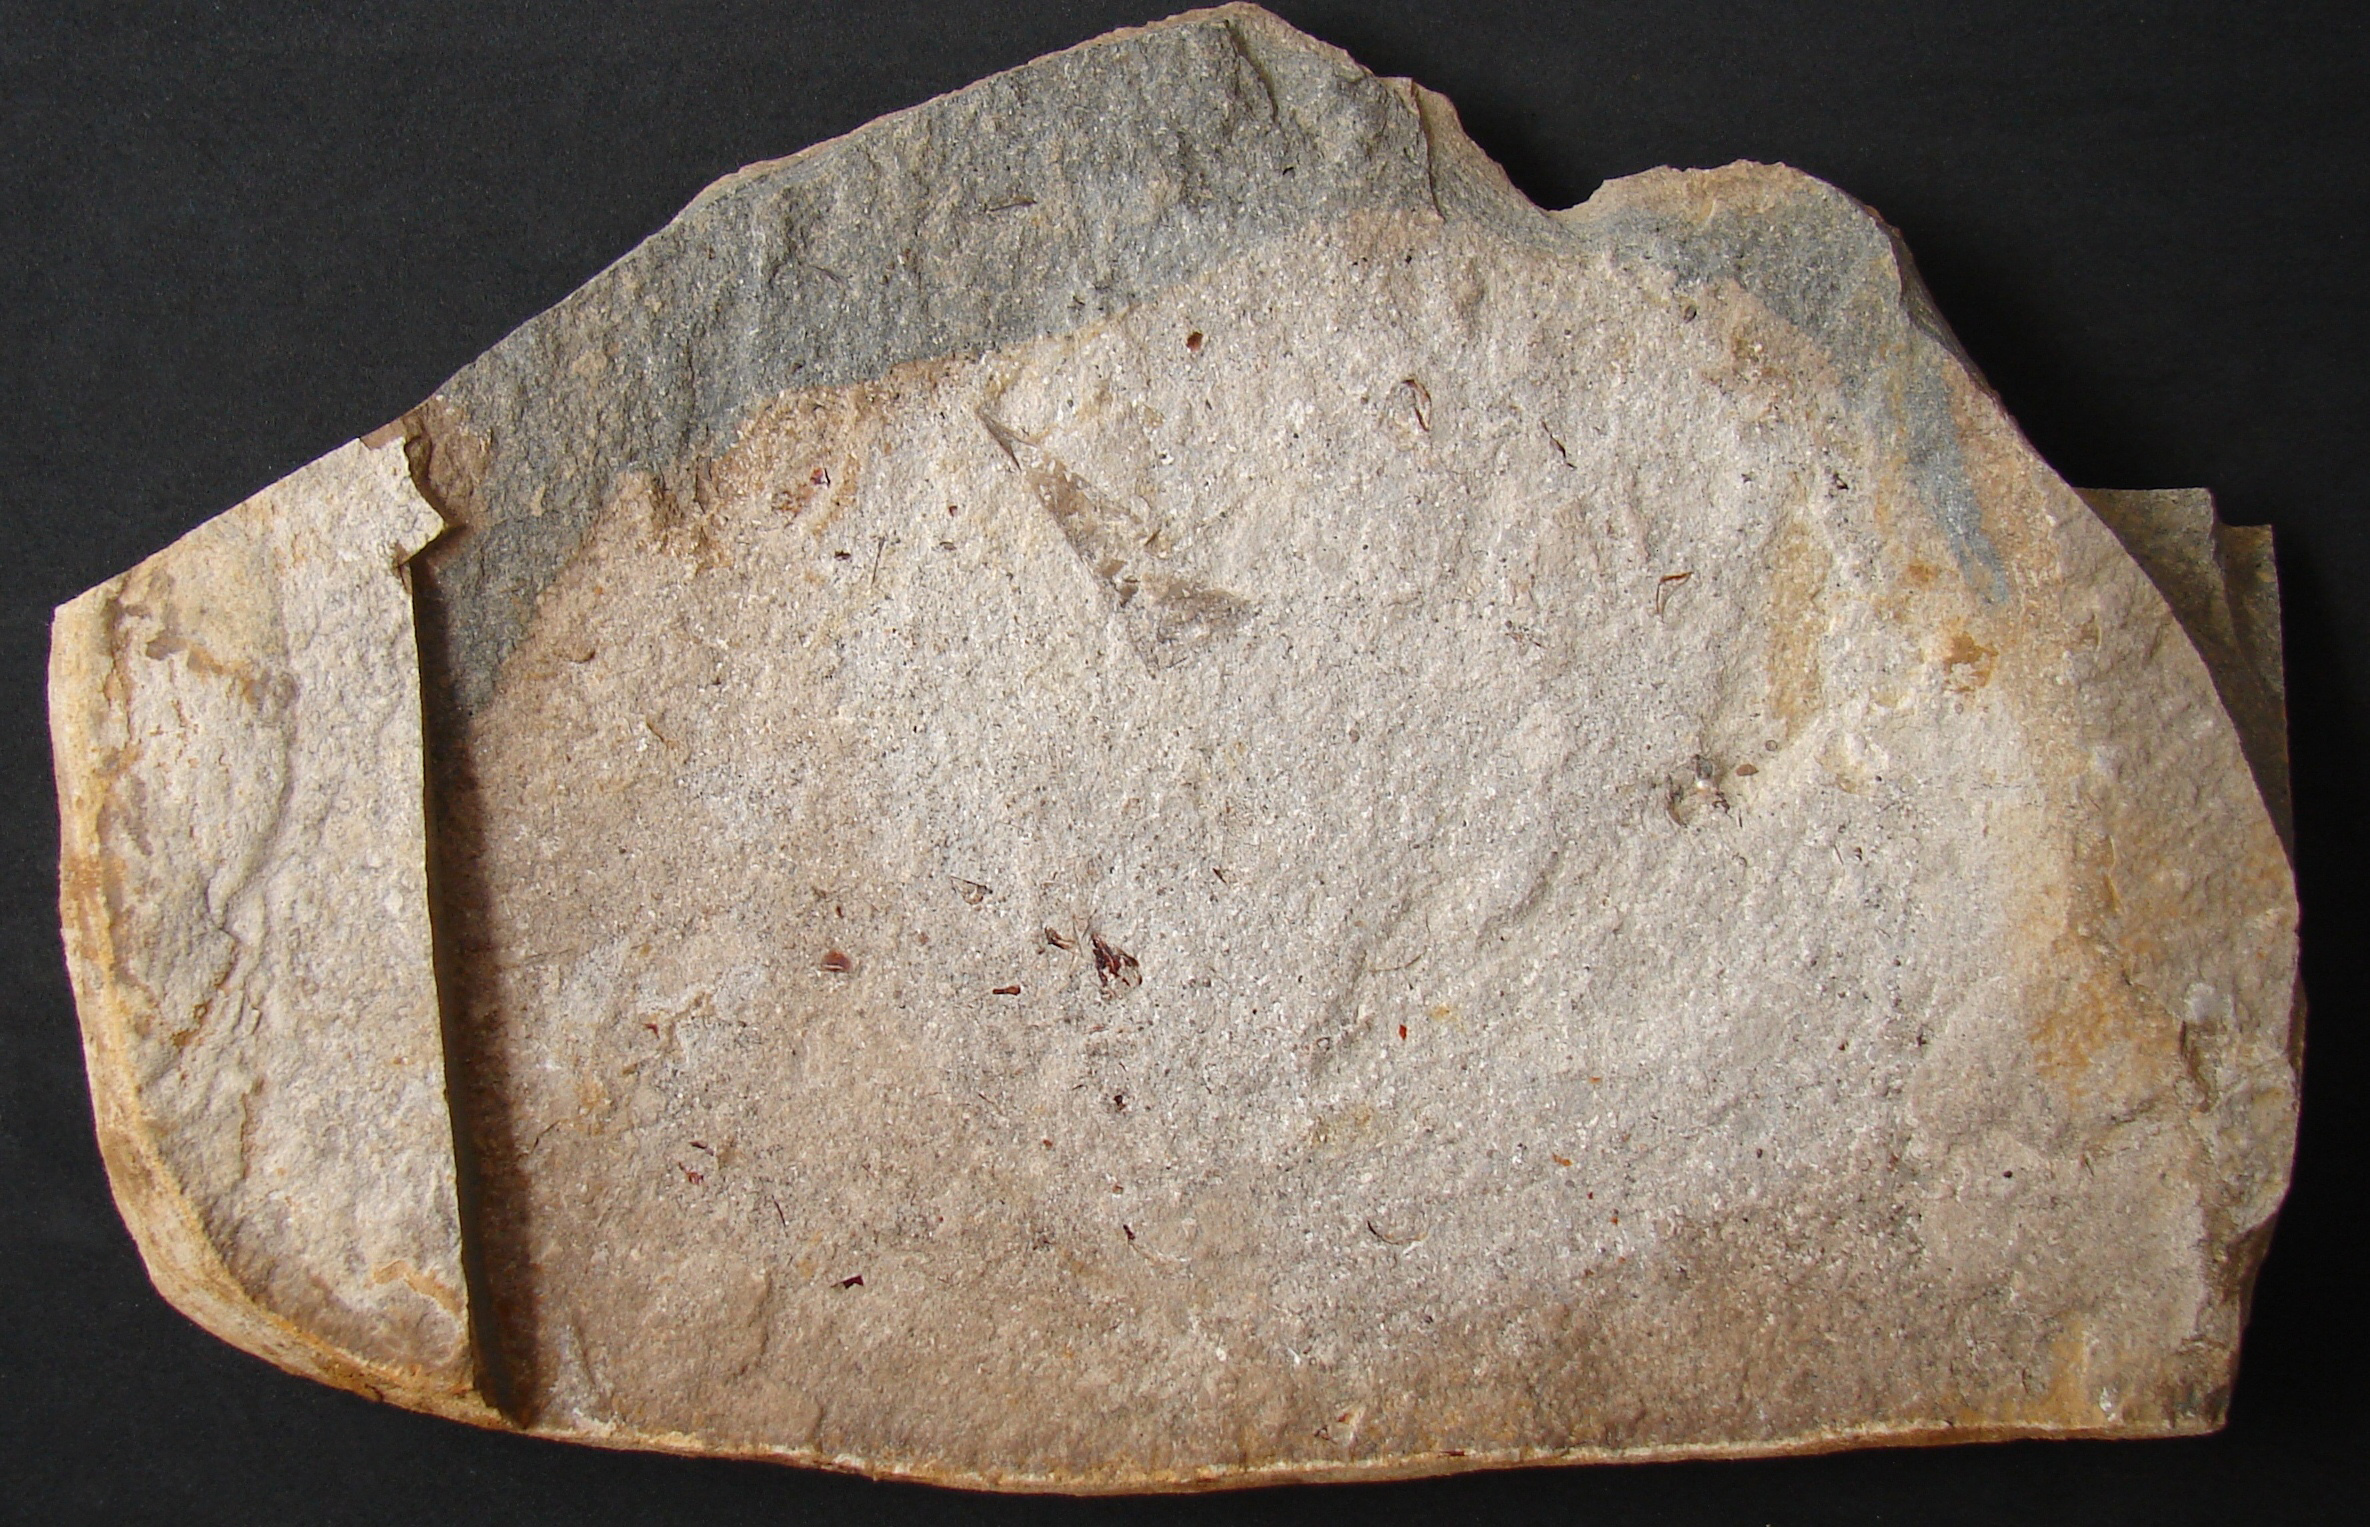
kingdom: Animalia
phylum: Mollusca
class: Cephalopoda
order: Belemnitida
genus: Chondroteuthis
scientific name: Chondroteuthis
